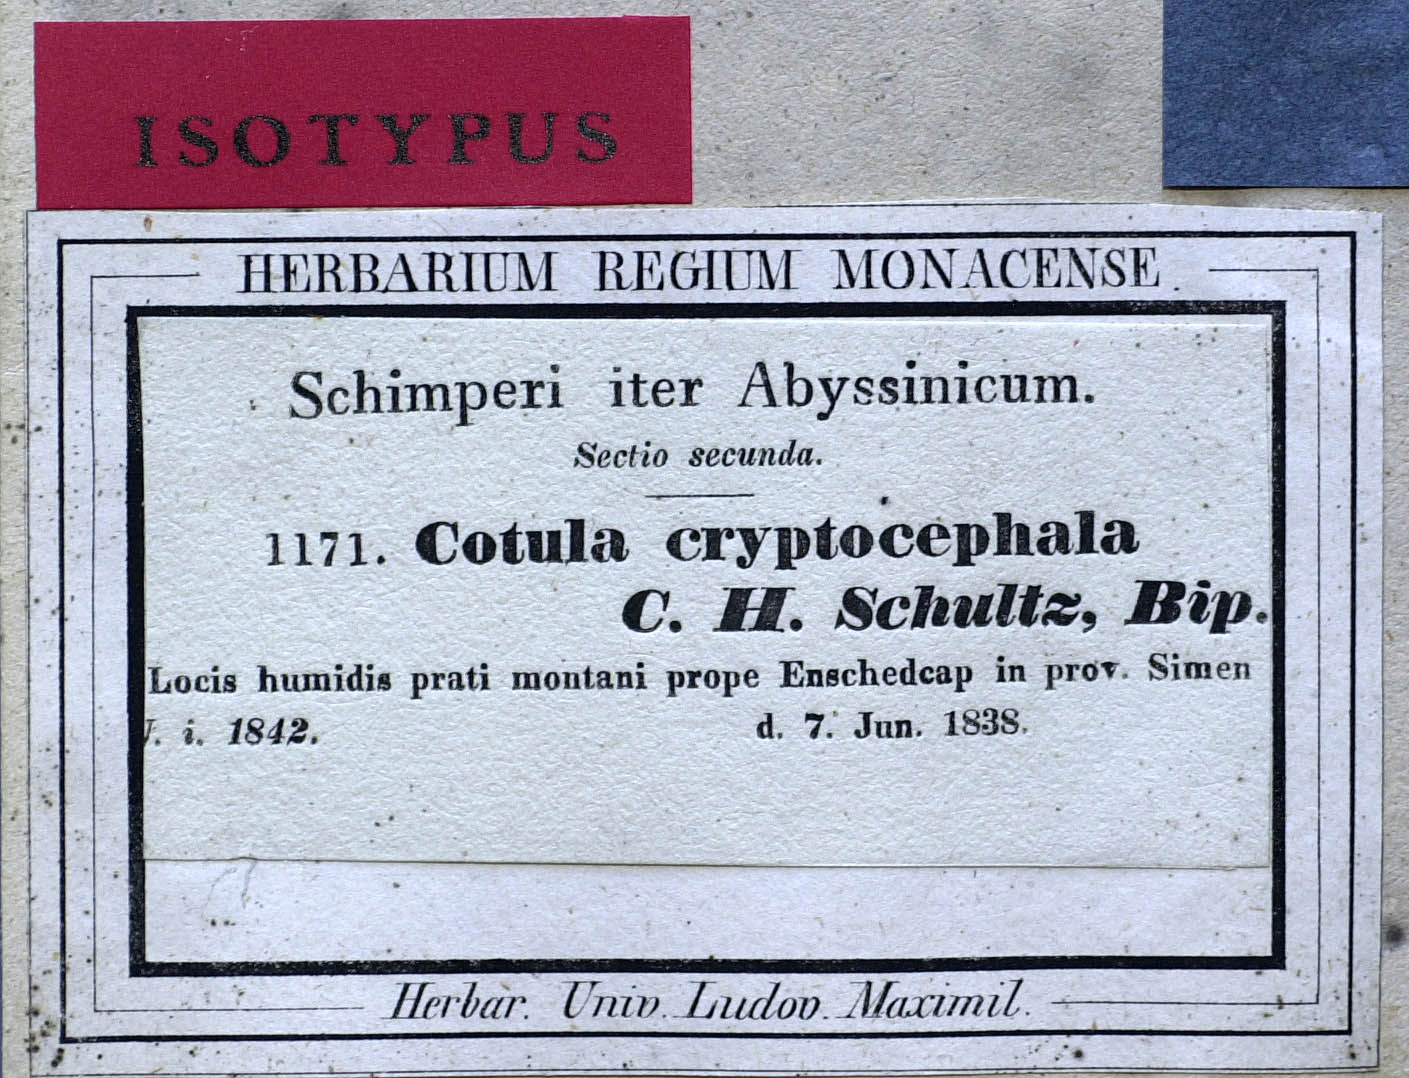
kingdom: Plantae
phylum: Tracheophyta
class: Magnoliopsida
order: Asterales
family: Asteraceae
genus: Cotula
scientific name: Cotula cryptocephala
